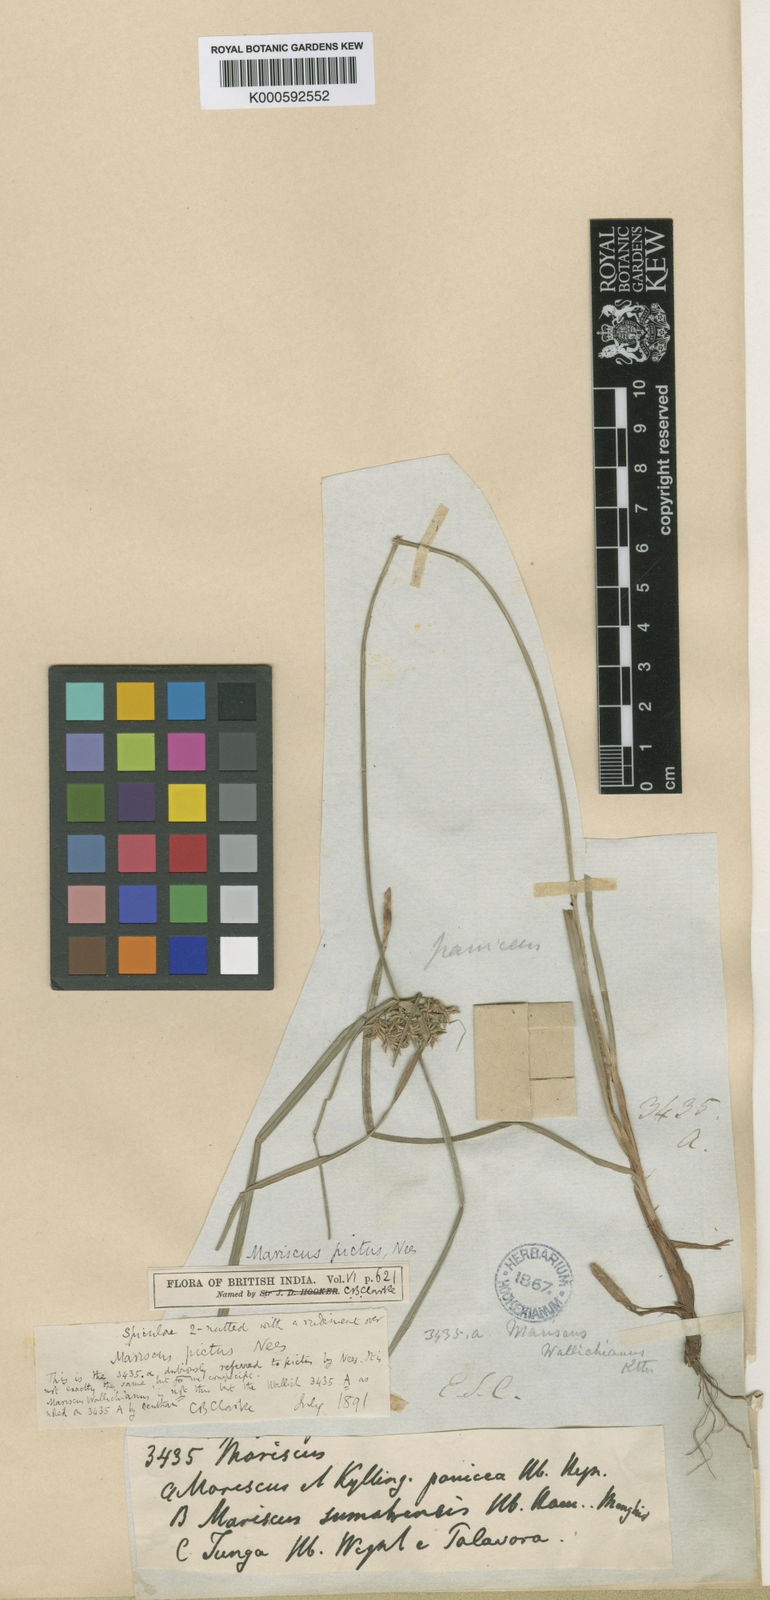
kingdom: Plantae
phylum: Tracheophyta
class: Liliopsida
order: Poales
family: Cyperaceae
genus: Cyperus
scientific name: Cyperus cyperinus
